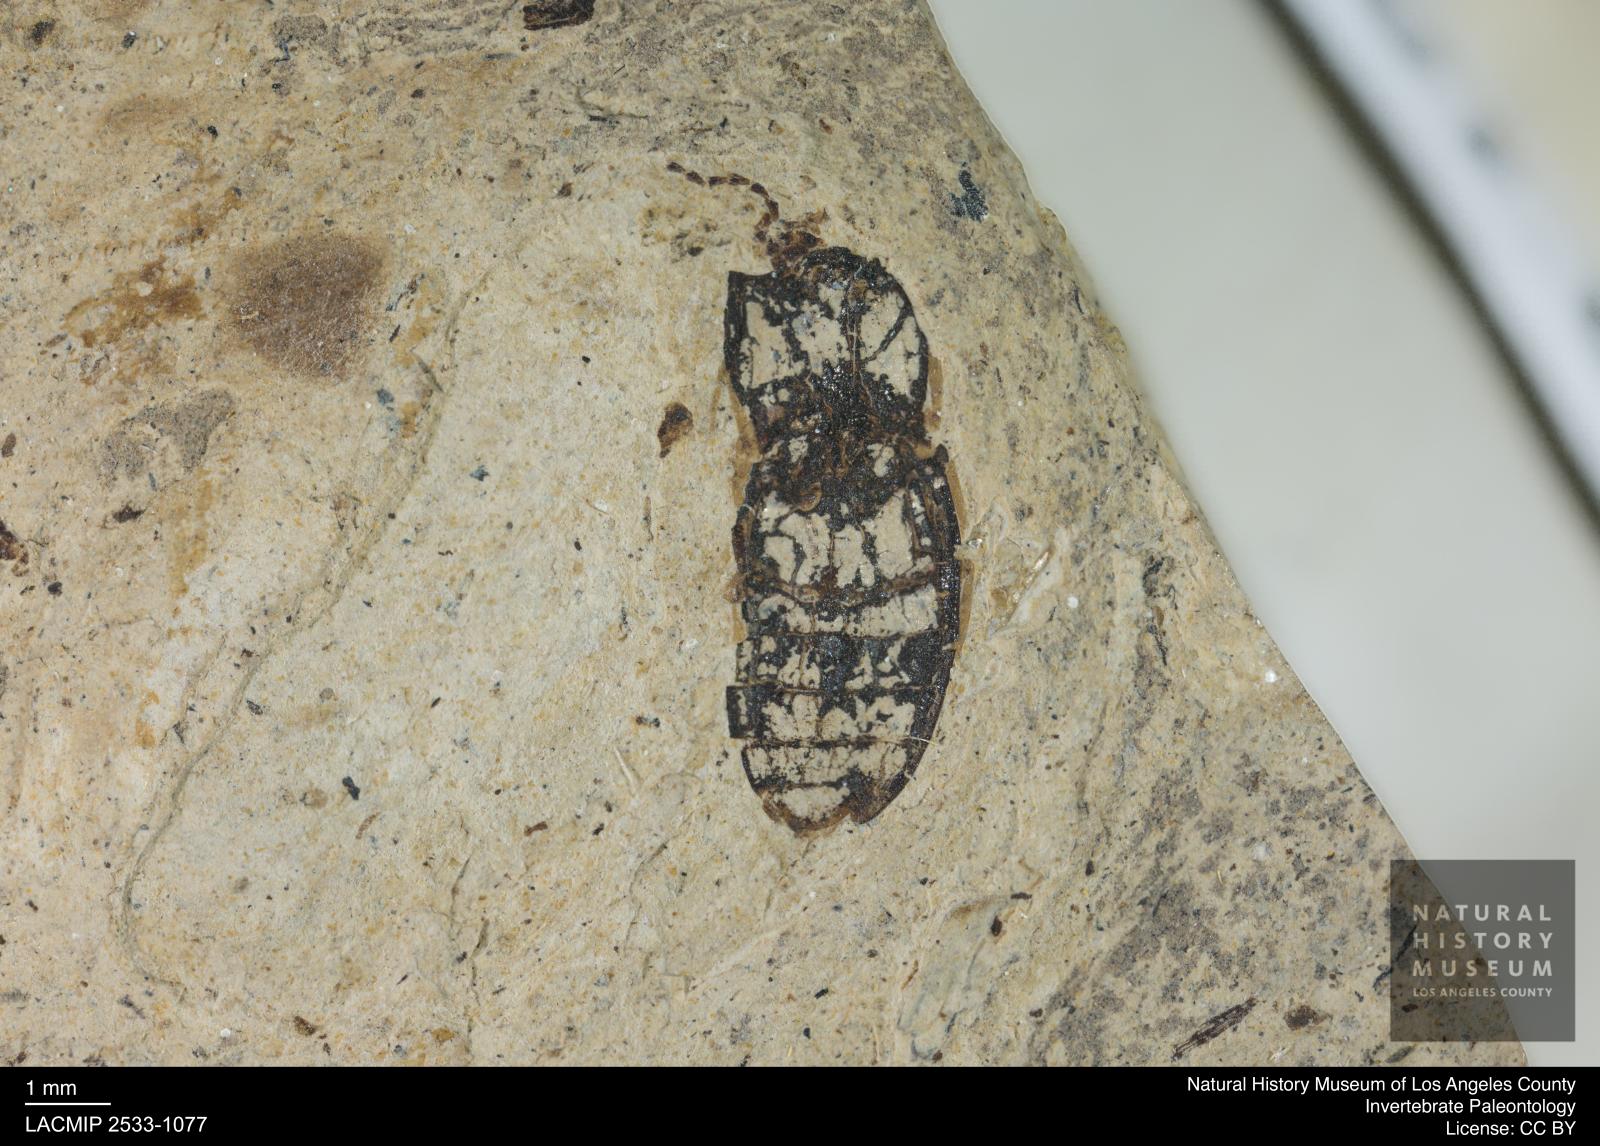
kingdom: Animalia
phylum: Arthropoda
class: Insecta
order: Coleoptera
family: Elateridae
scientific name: Elateridae
